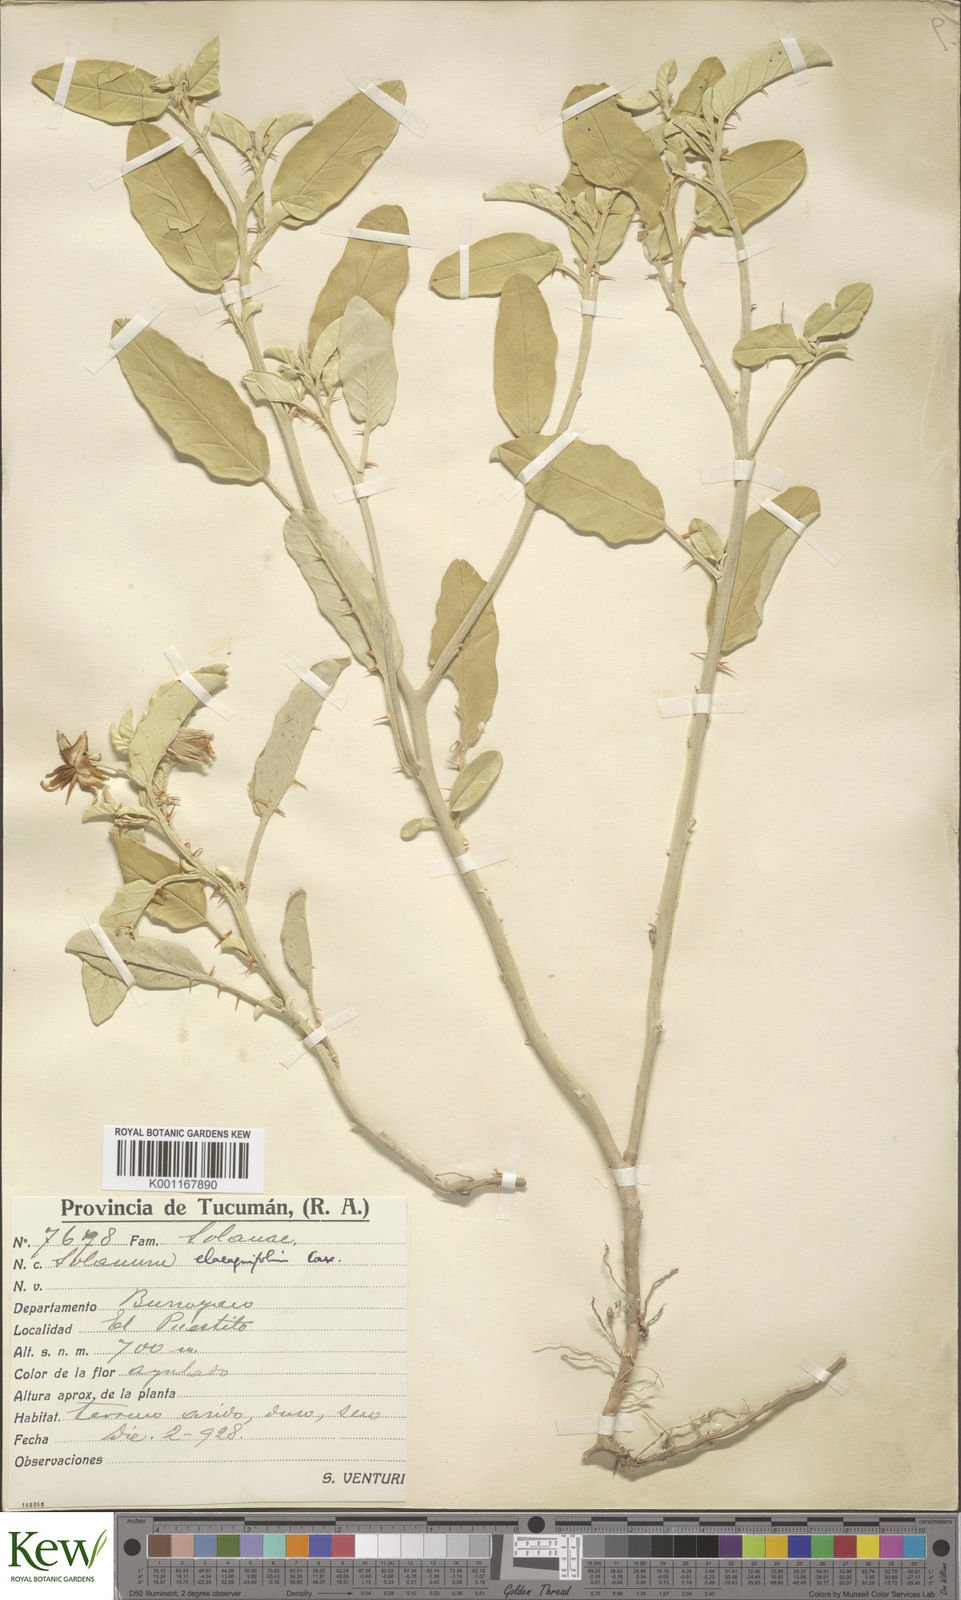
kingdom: Plantae
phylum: Tracheophyta
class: Magnoliopsida
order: Solanales
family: Solanaceae
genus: Solanum
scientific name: Solanum elaeagnifolium
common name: Silverleaf nightshade
